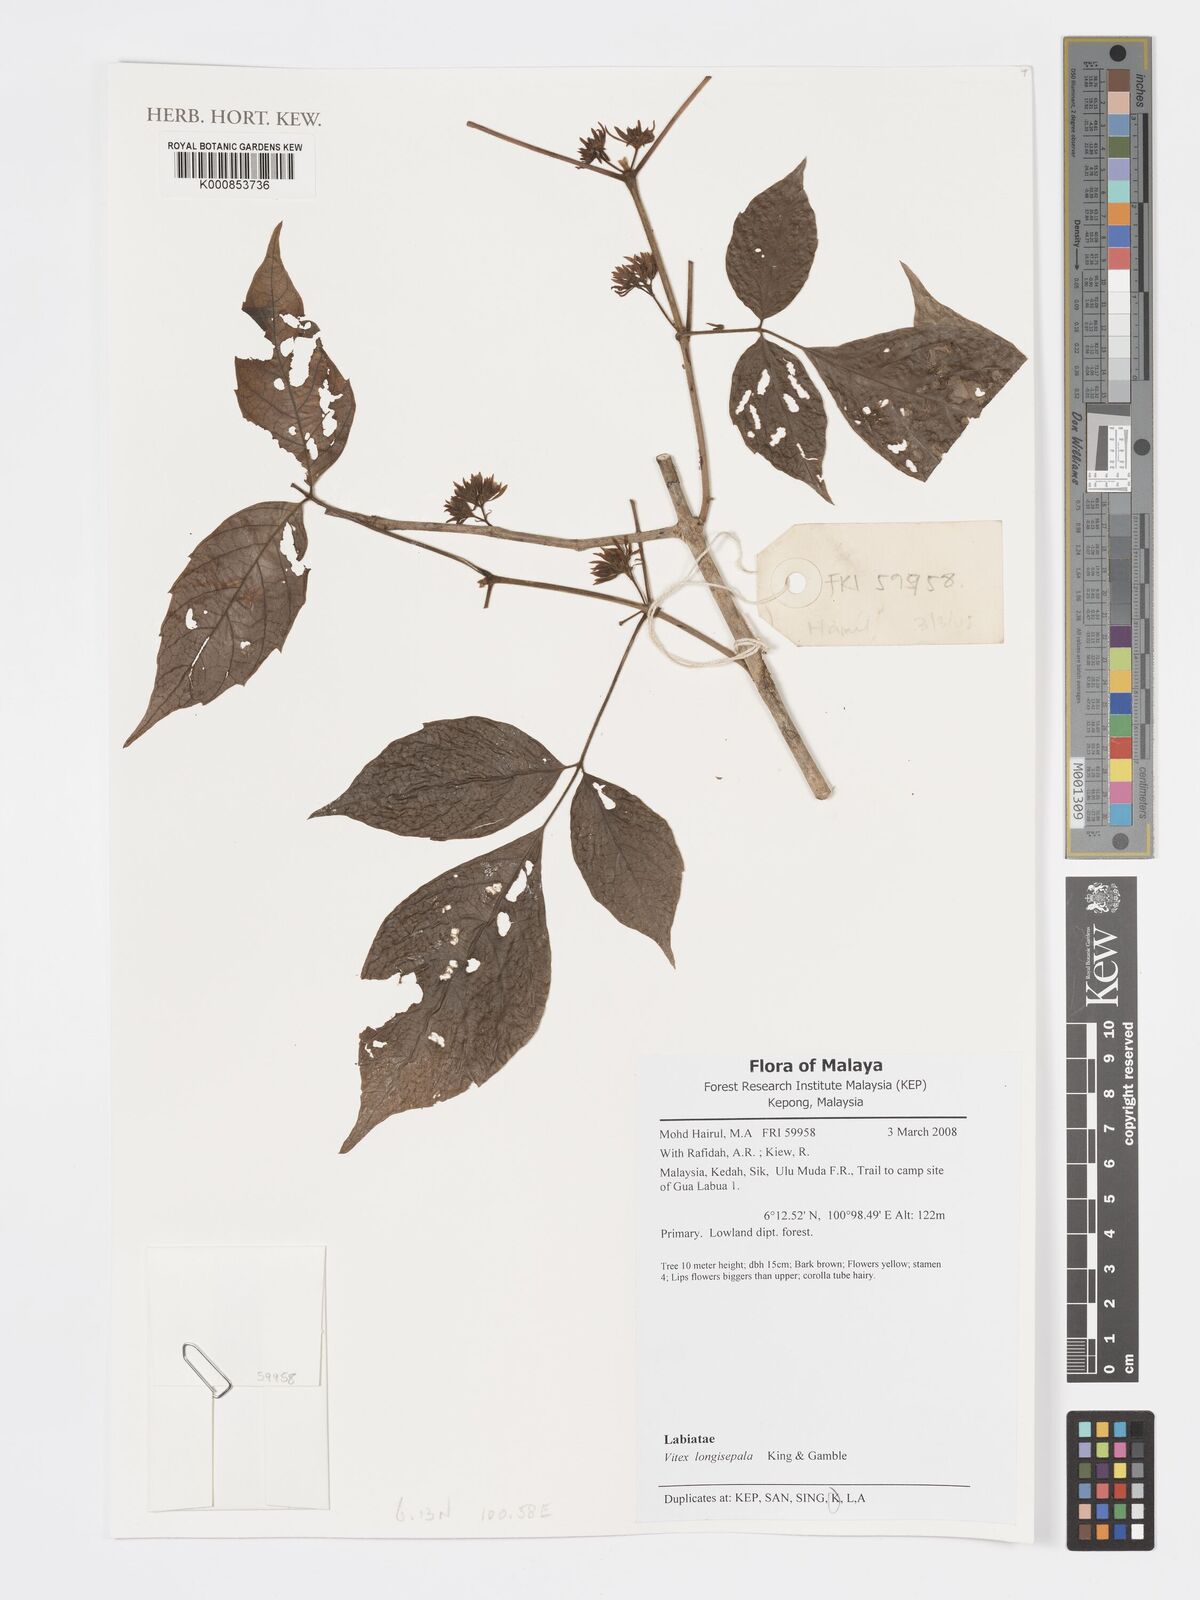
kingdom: Plantae
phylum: Tracheophyta
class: Magnoliopsida
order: Lamiales
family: Lamiaceae
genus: Vitex
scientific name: Vitex
